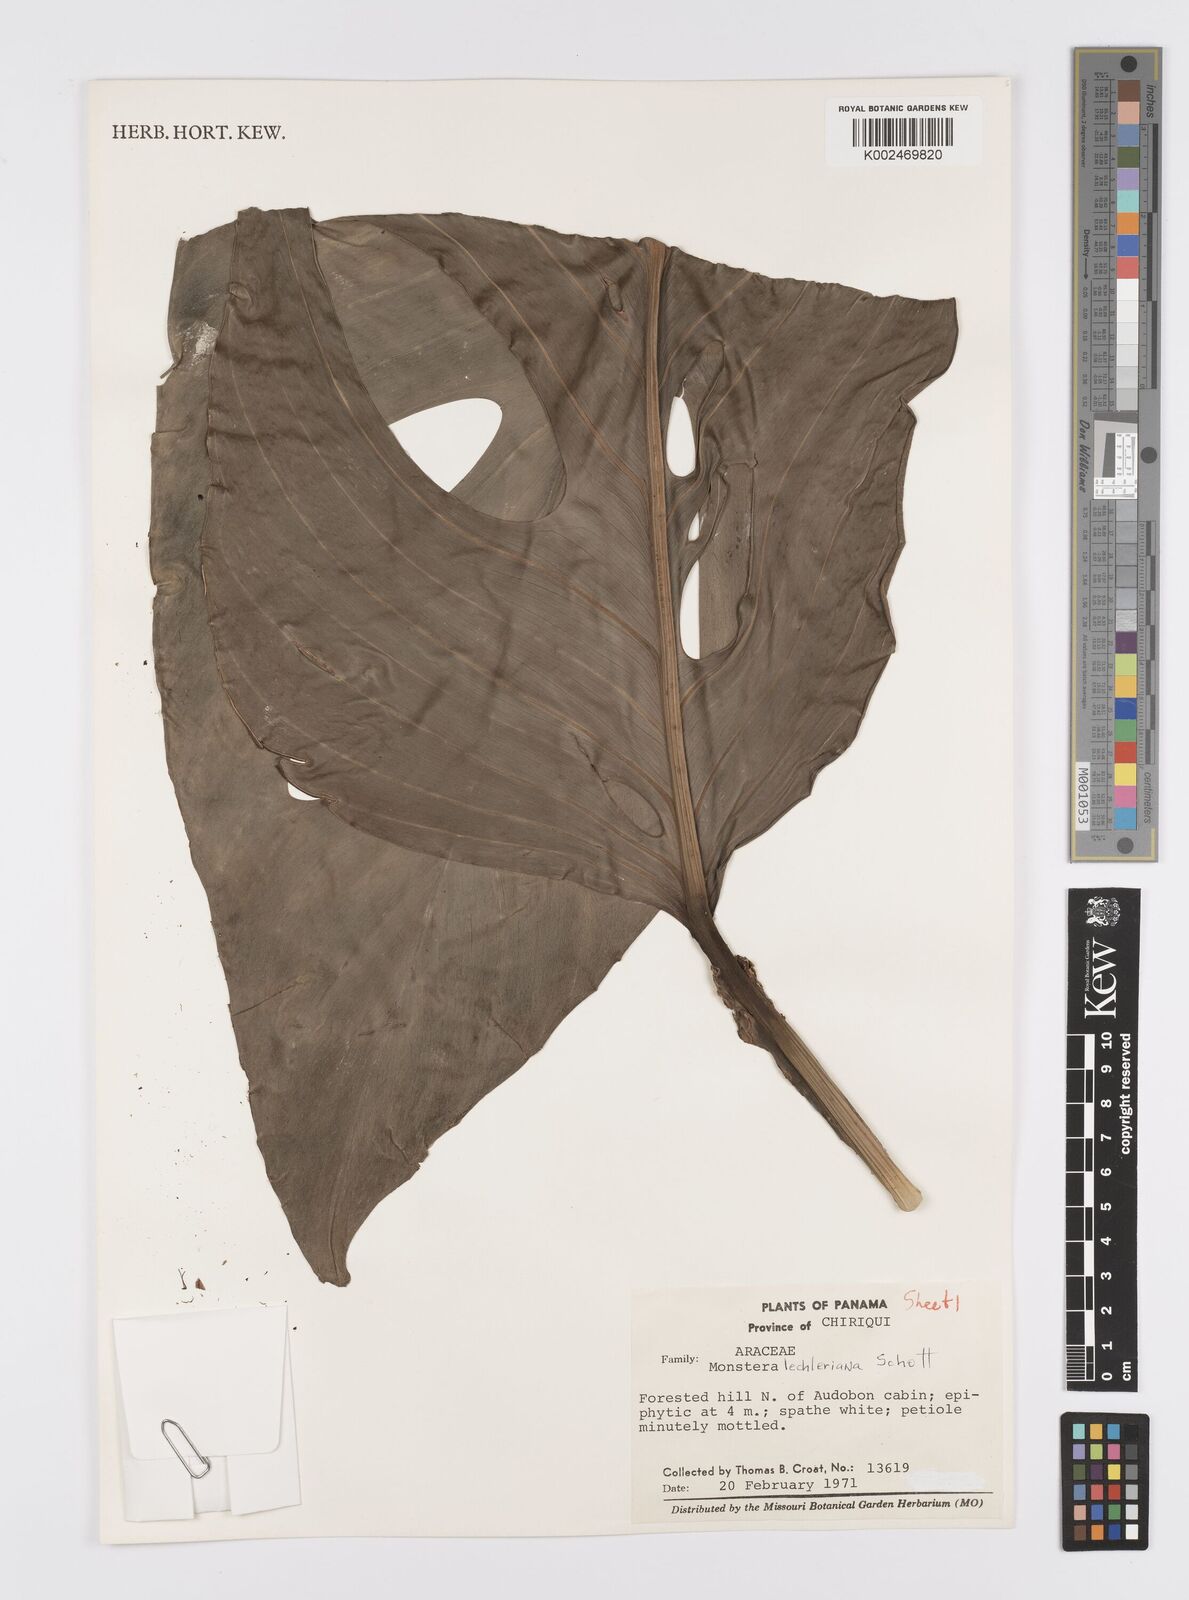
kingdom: Plantae
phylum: Tracheophyta
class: Liliopsida
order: Alismatales
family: Araceae
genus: Monstera
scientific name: Monstera lechleriana
